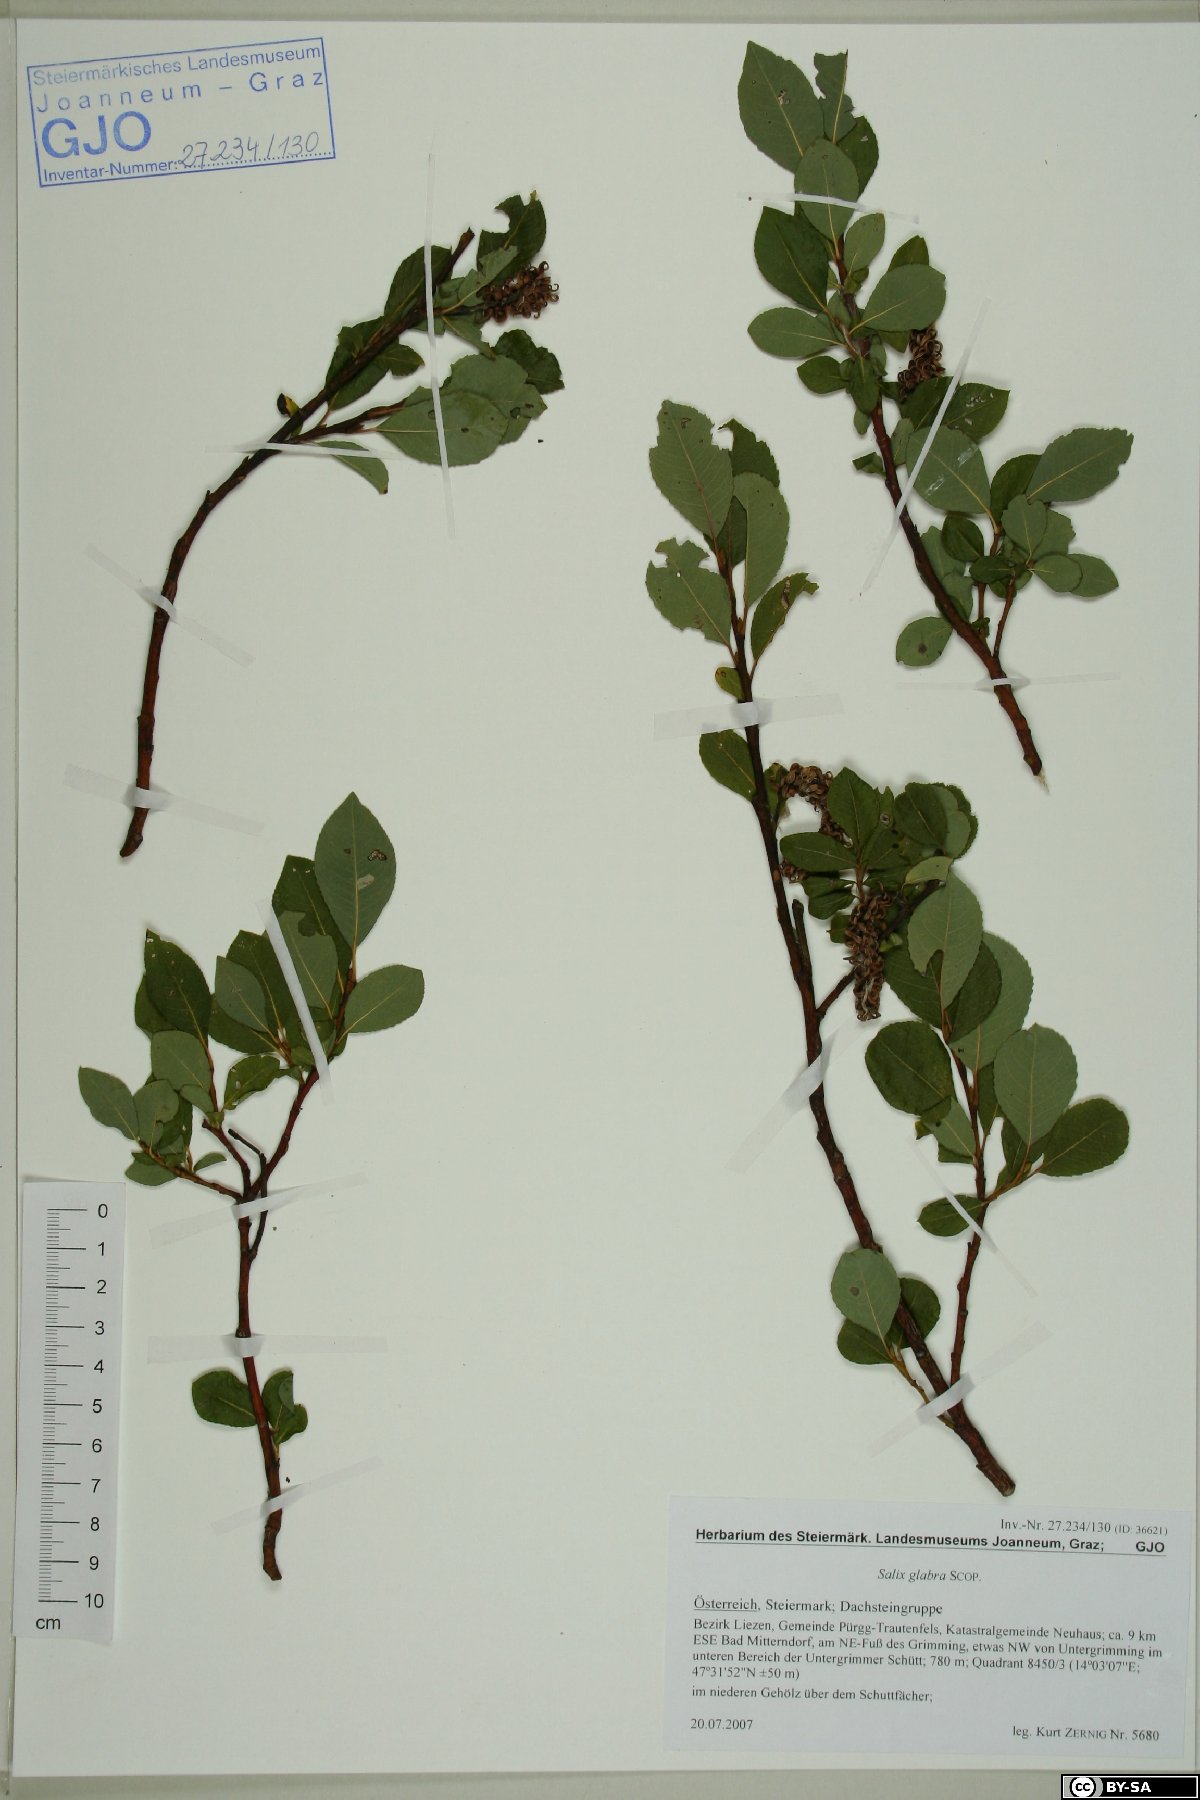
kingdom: Plantae
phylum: Tracheophyta
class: Magnoliopsida
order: Malpighiales
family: Salicaceae
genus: Salix
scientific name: Salix glabra
